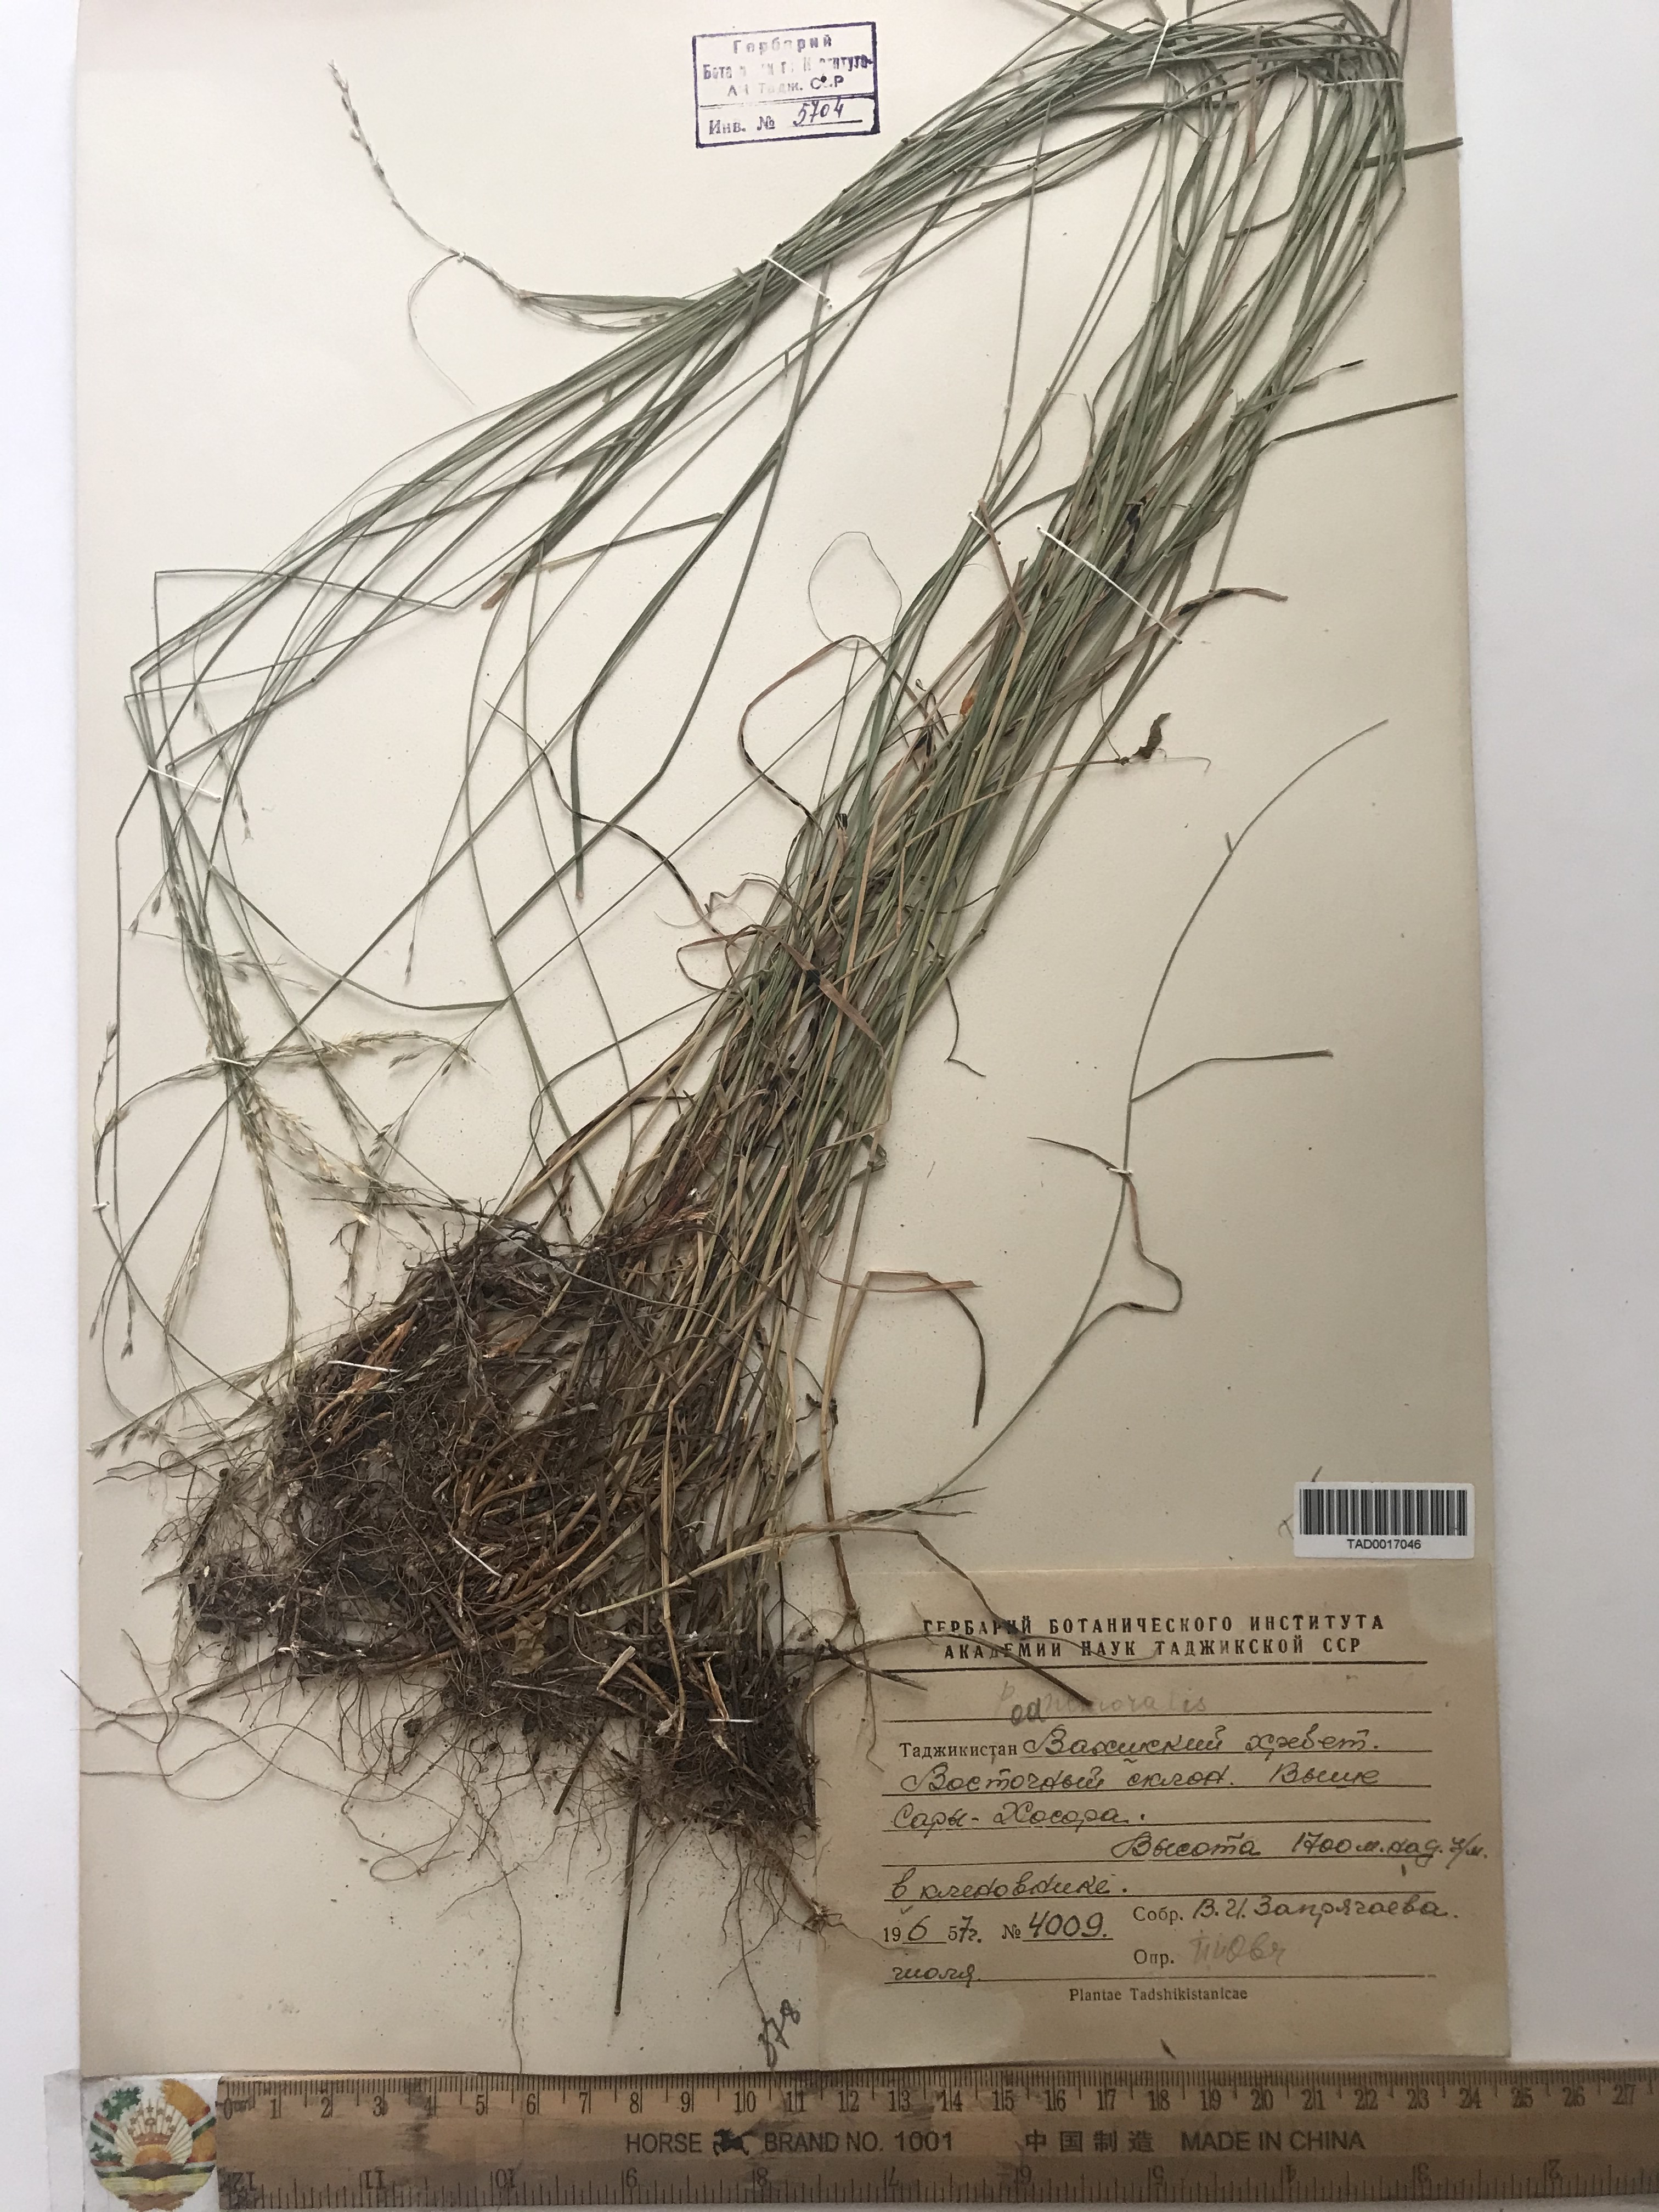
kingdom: Plantae
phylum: Tracheophyta
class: Liliopsida
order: Poales
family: Poaceae
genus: Poa
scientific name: Poa nemoralis
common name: Wood bluegrass
